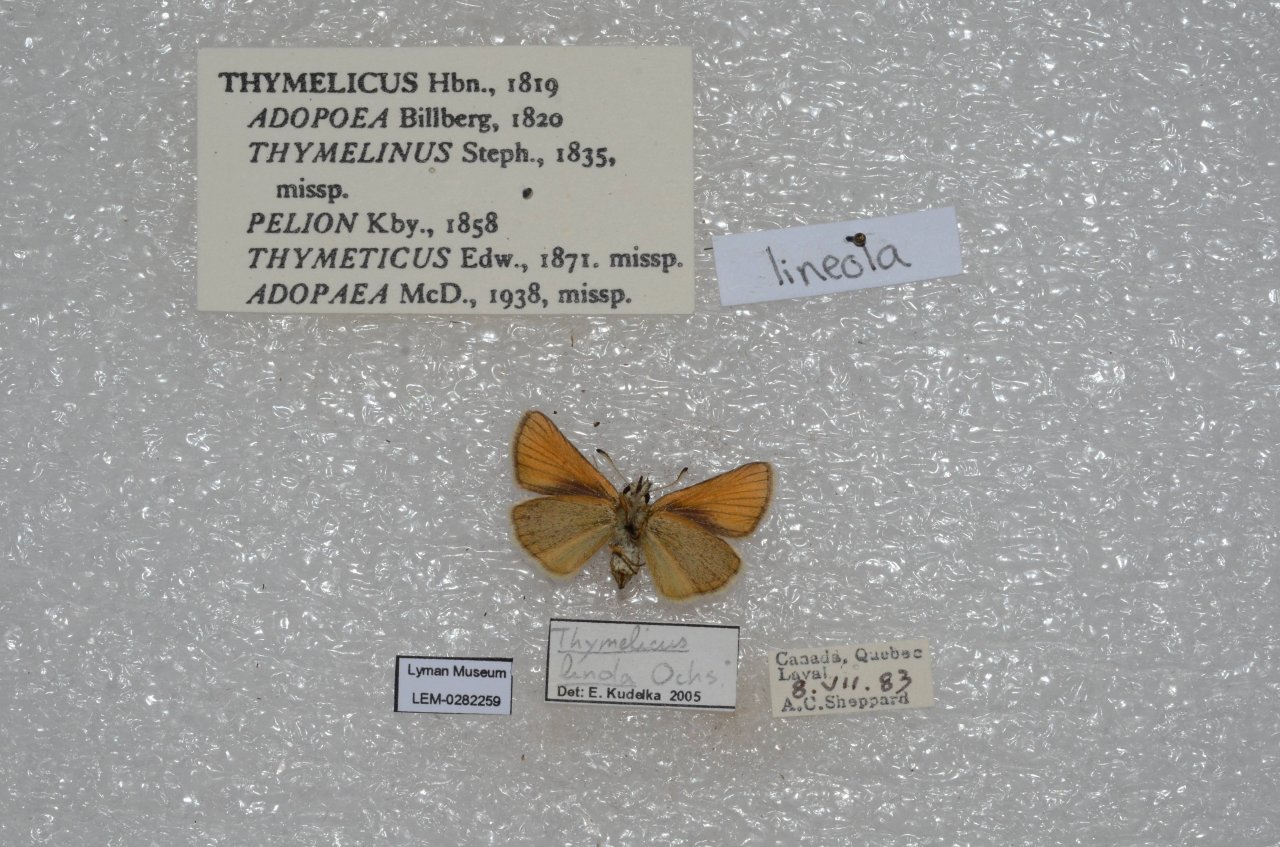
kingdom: Animalia
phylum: Arthropoda
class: Insecta
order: Lepidoptera
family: Hesperiidae
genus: Thymelicus
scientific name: Thymelicus lineola
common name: European Skipper
